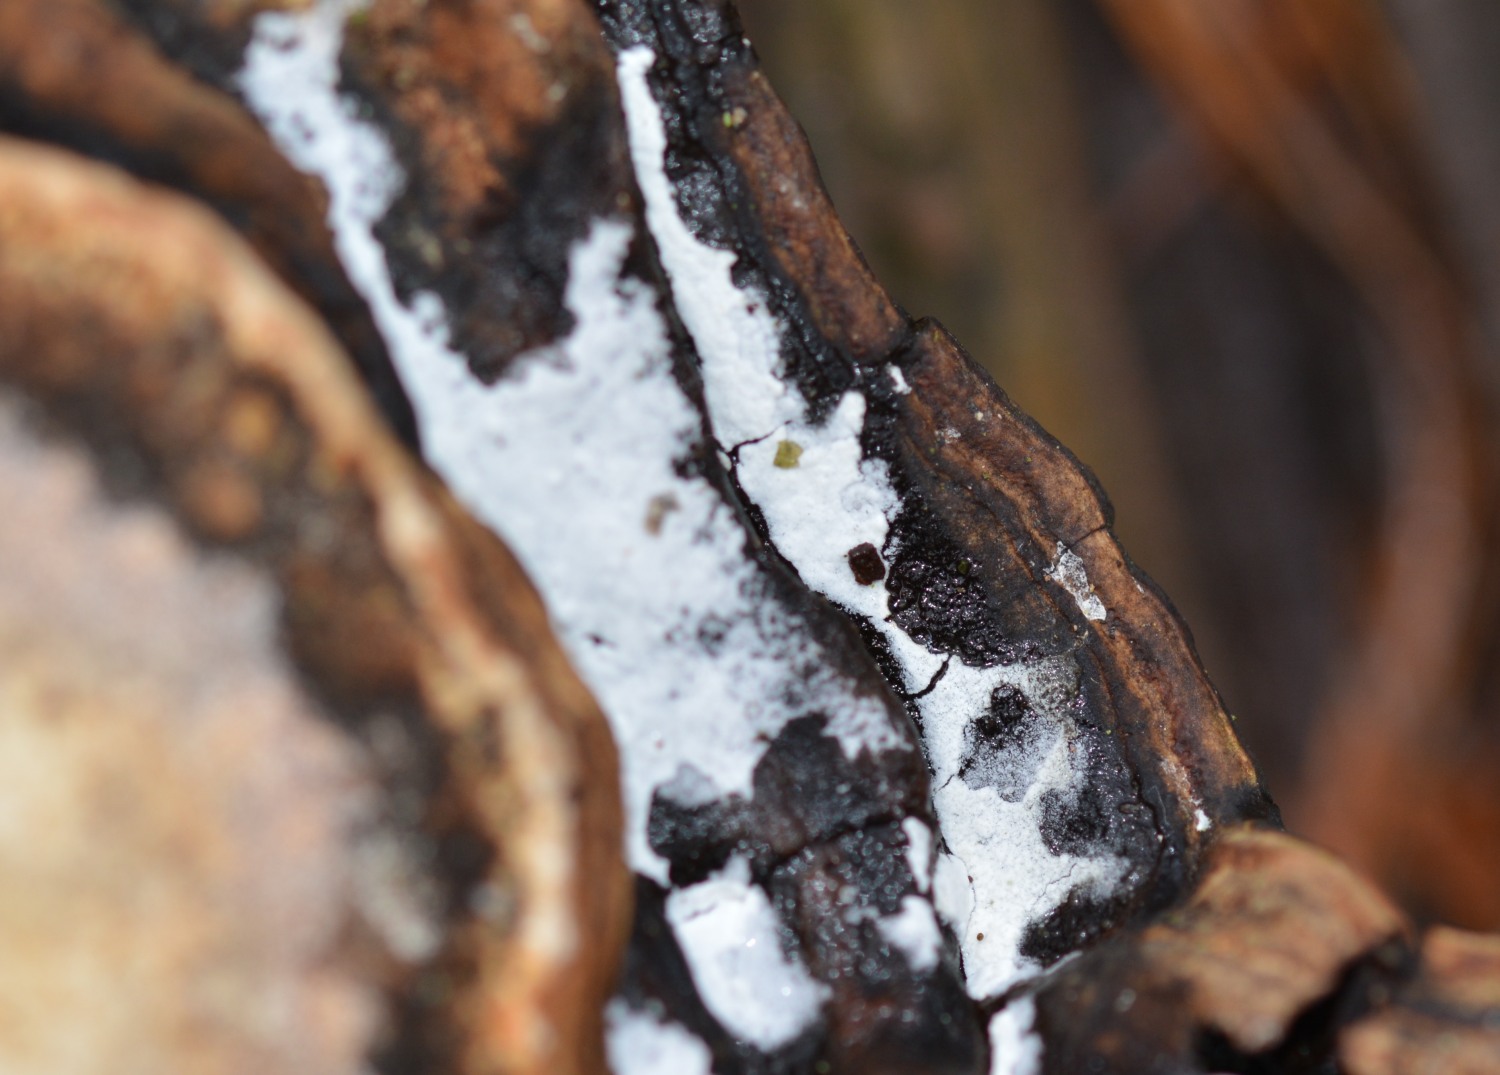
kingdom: Fungi
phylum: Basidiomycota
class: Agaricomycetes
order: Cantharellales
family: Hydnaceae
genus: Sistotrema
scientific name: Sistotrema sernanderi
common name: sur kroneskorpe
